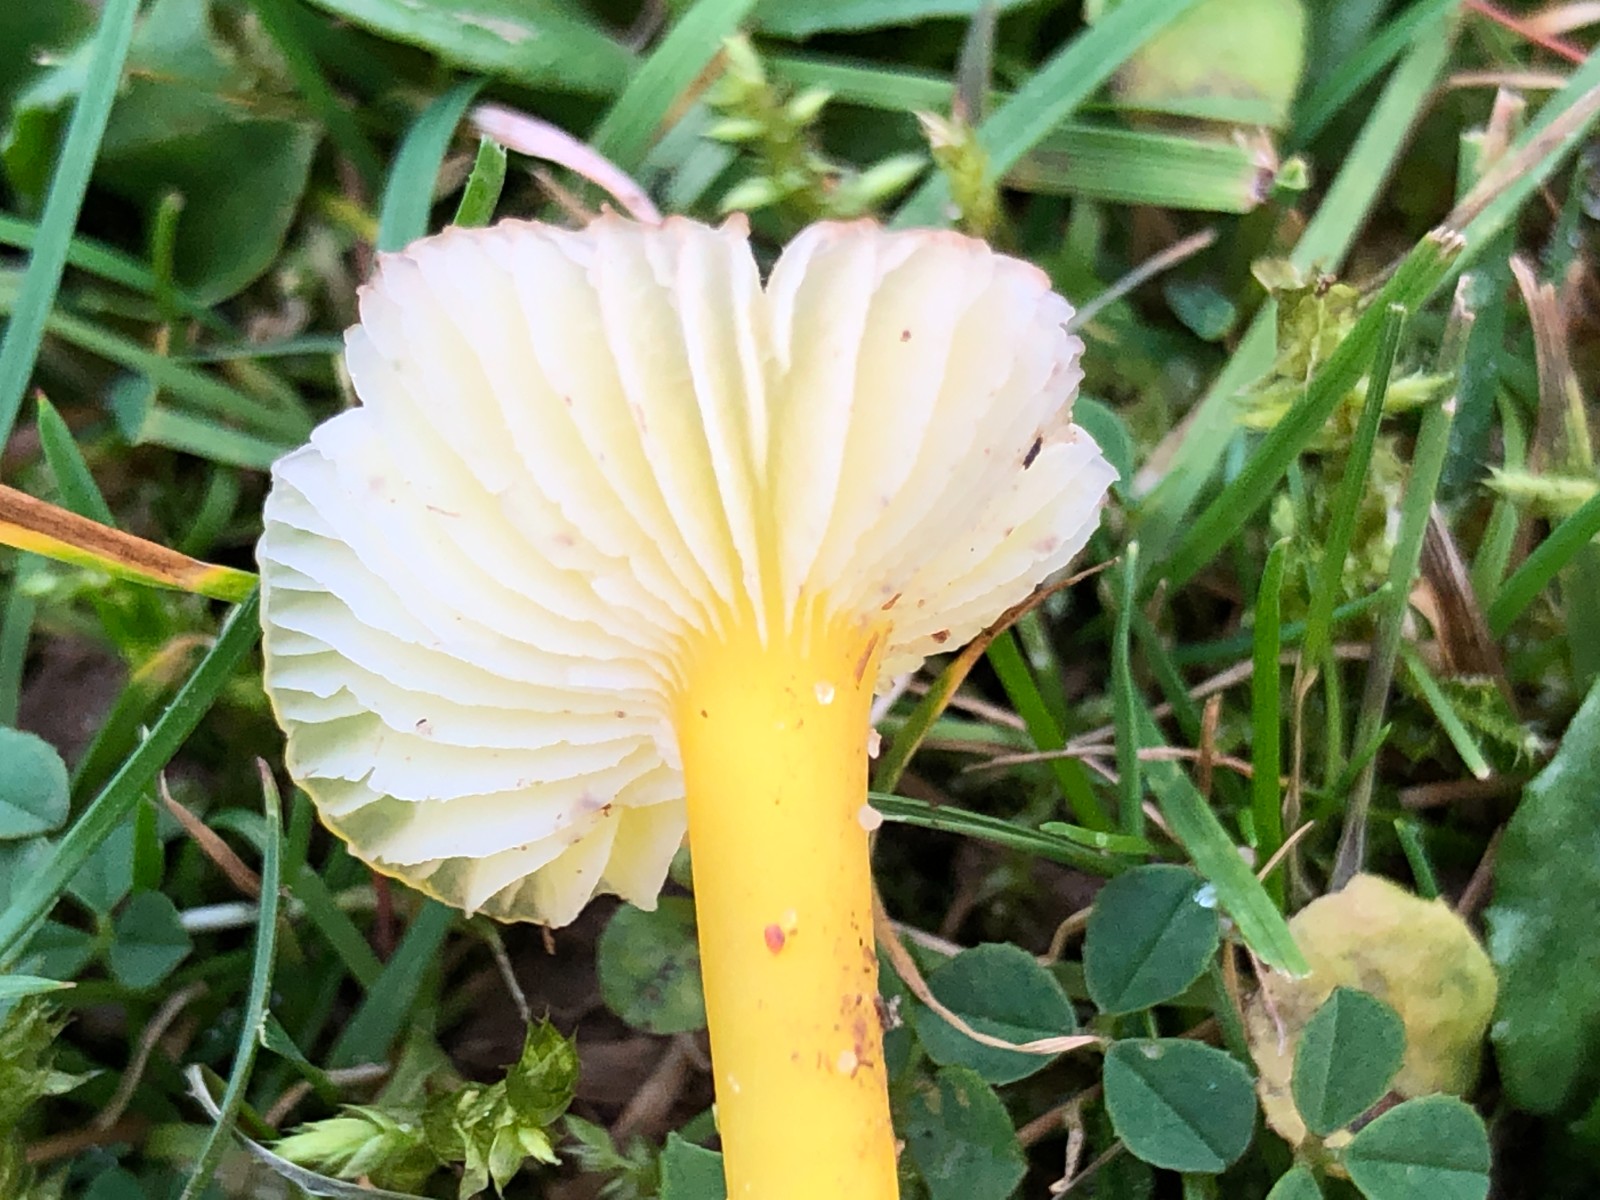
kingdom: Fungi
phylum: Basidiomycota
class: Agaricomycetes
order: Agaricales
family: Hygrophoraceae
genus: Hygrocybe
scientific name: Hygrocybe glutinipes
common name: slimstokket vokshat
